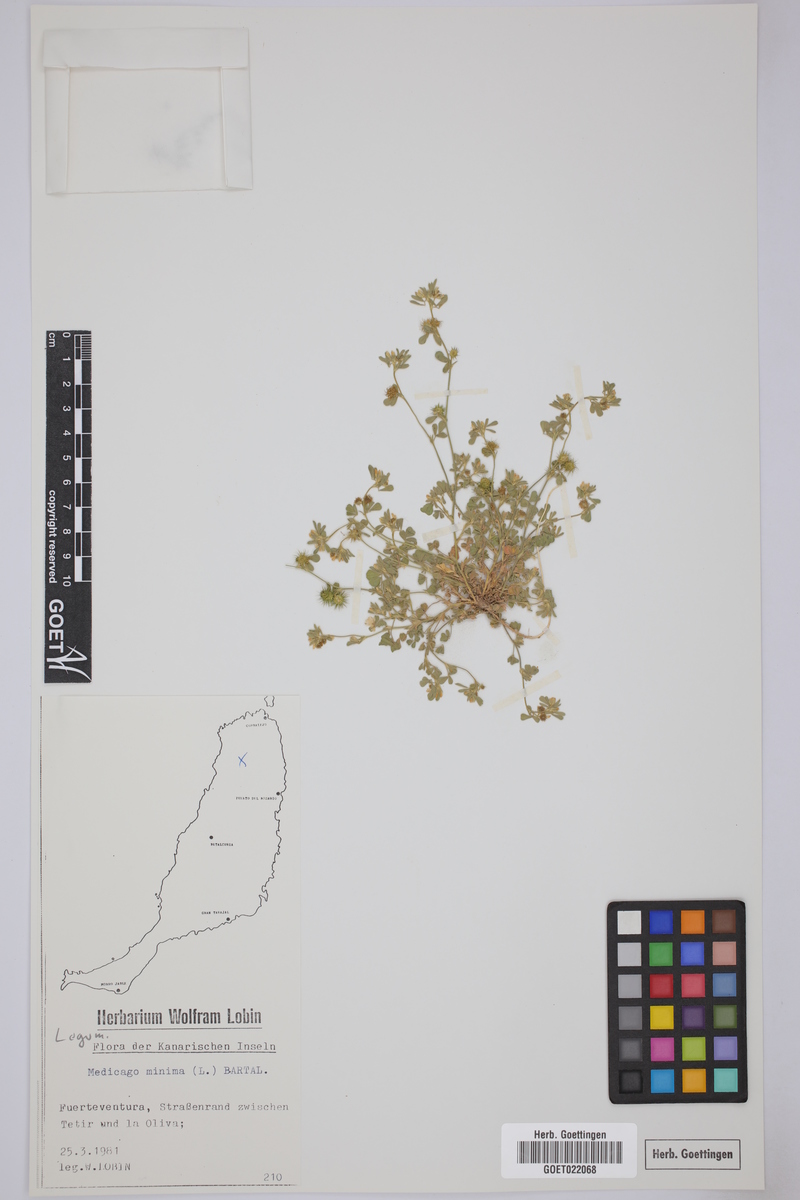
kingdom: Plantae
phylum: Tracheophyta
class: Magnoliopsida
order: Fabales
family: Fabaceae
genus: Medicago
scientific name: Medicago minima
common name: Little bur-clover
